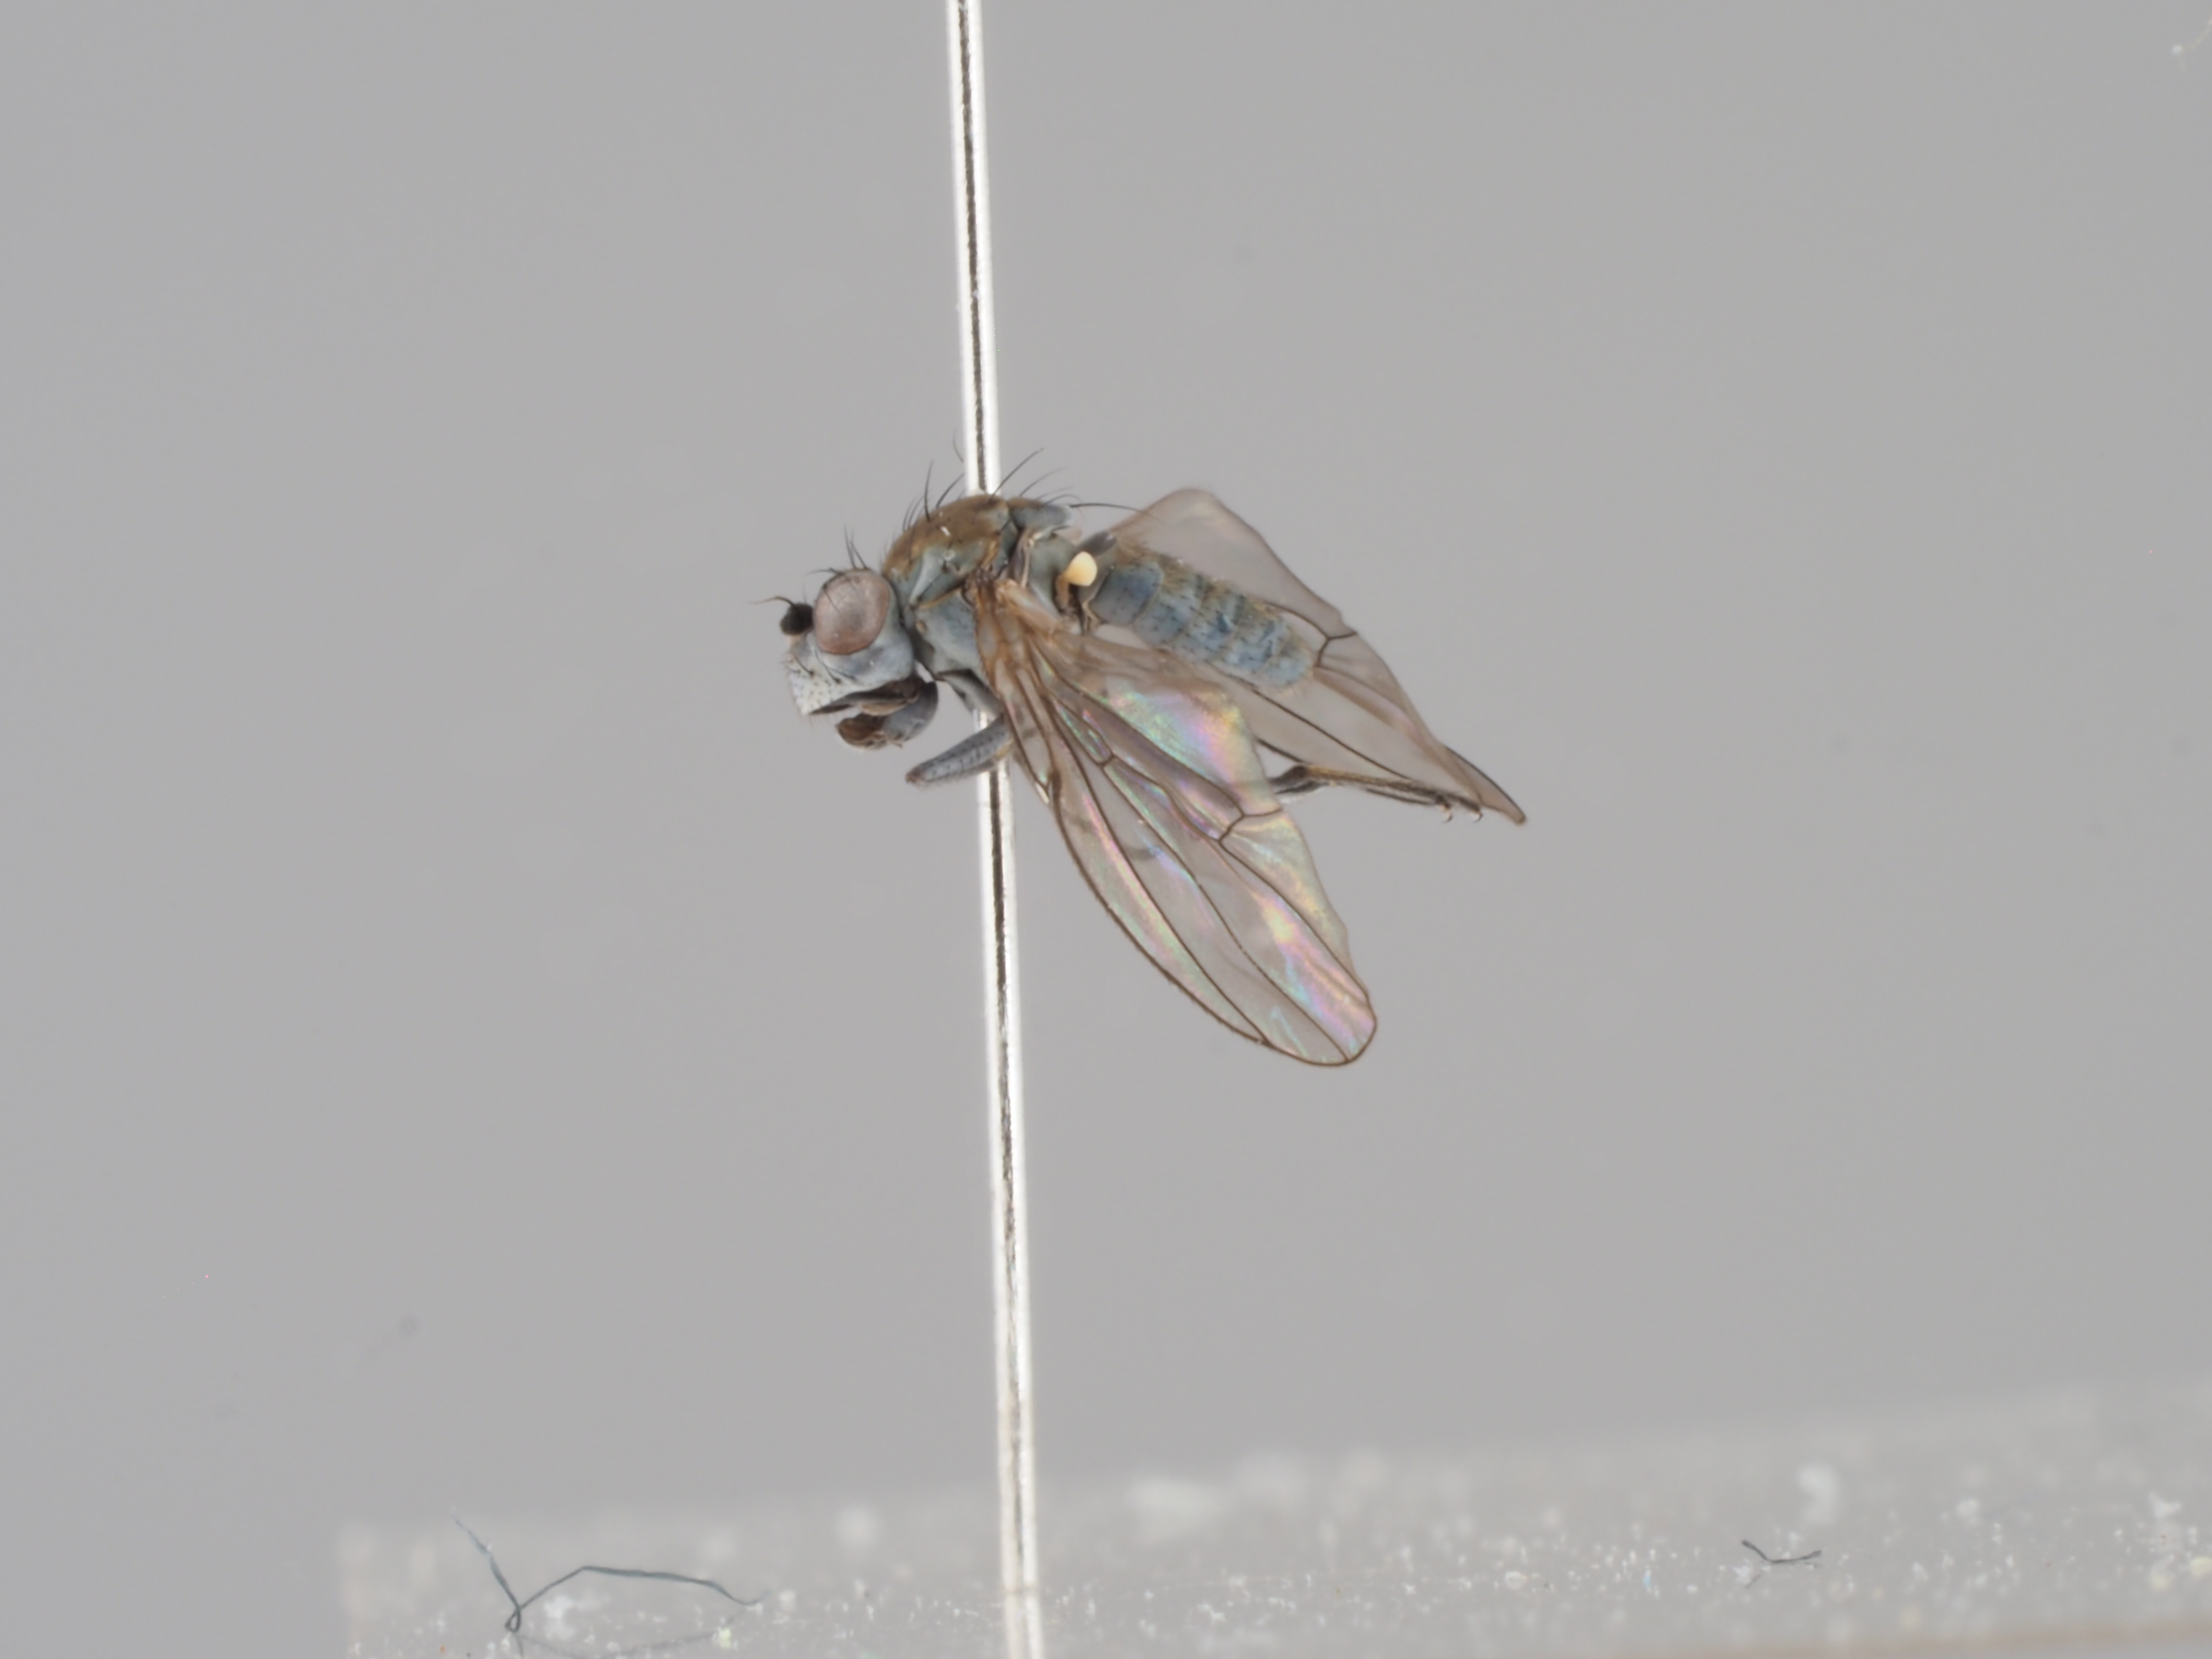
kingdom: Animalia
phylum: Arthropoda
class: Insecta
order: Diptera
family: Ephydridae
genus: Scatella
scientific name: Scatella paludum
